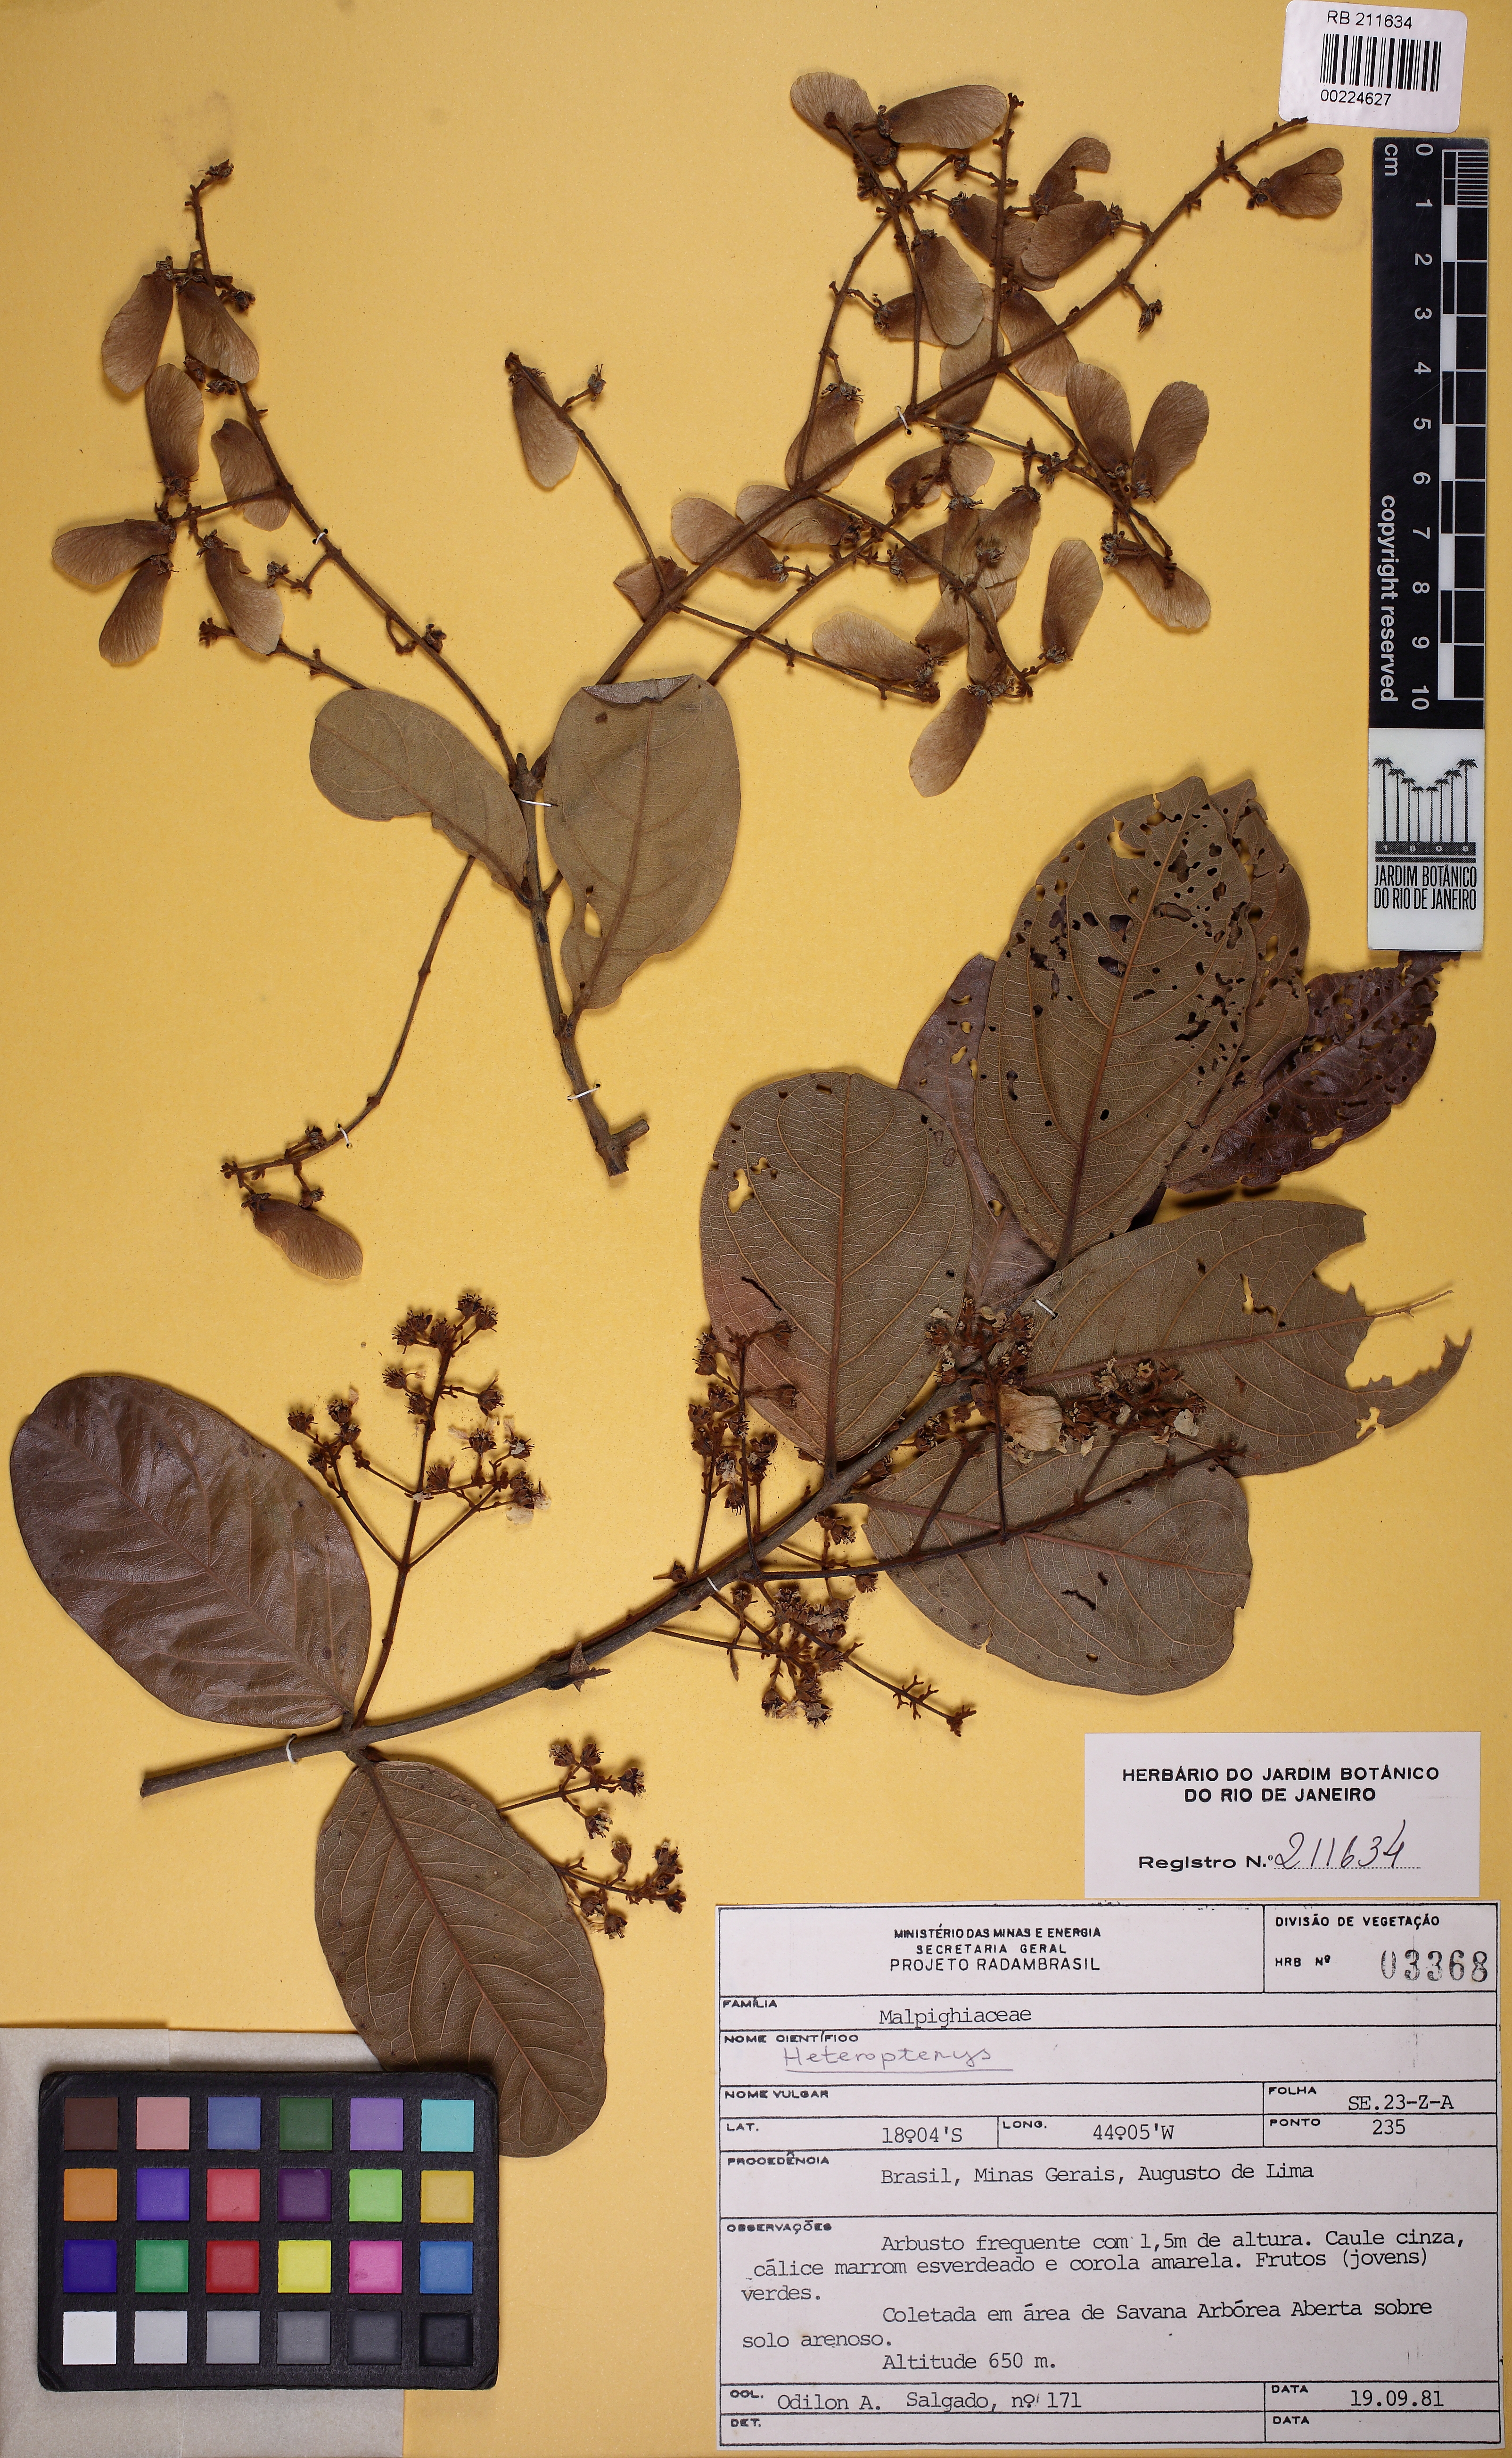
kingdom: Plantae
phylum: Tracheophyta
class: Magnoliopsida
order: Malpighiales
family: Malpighiaceae
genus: Heteropterys
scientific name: Heteropterys
